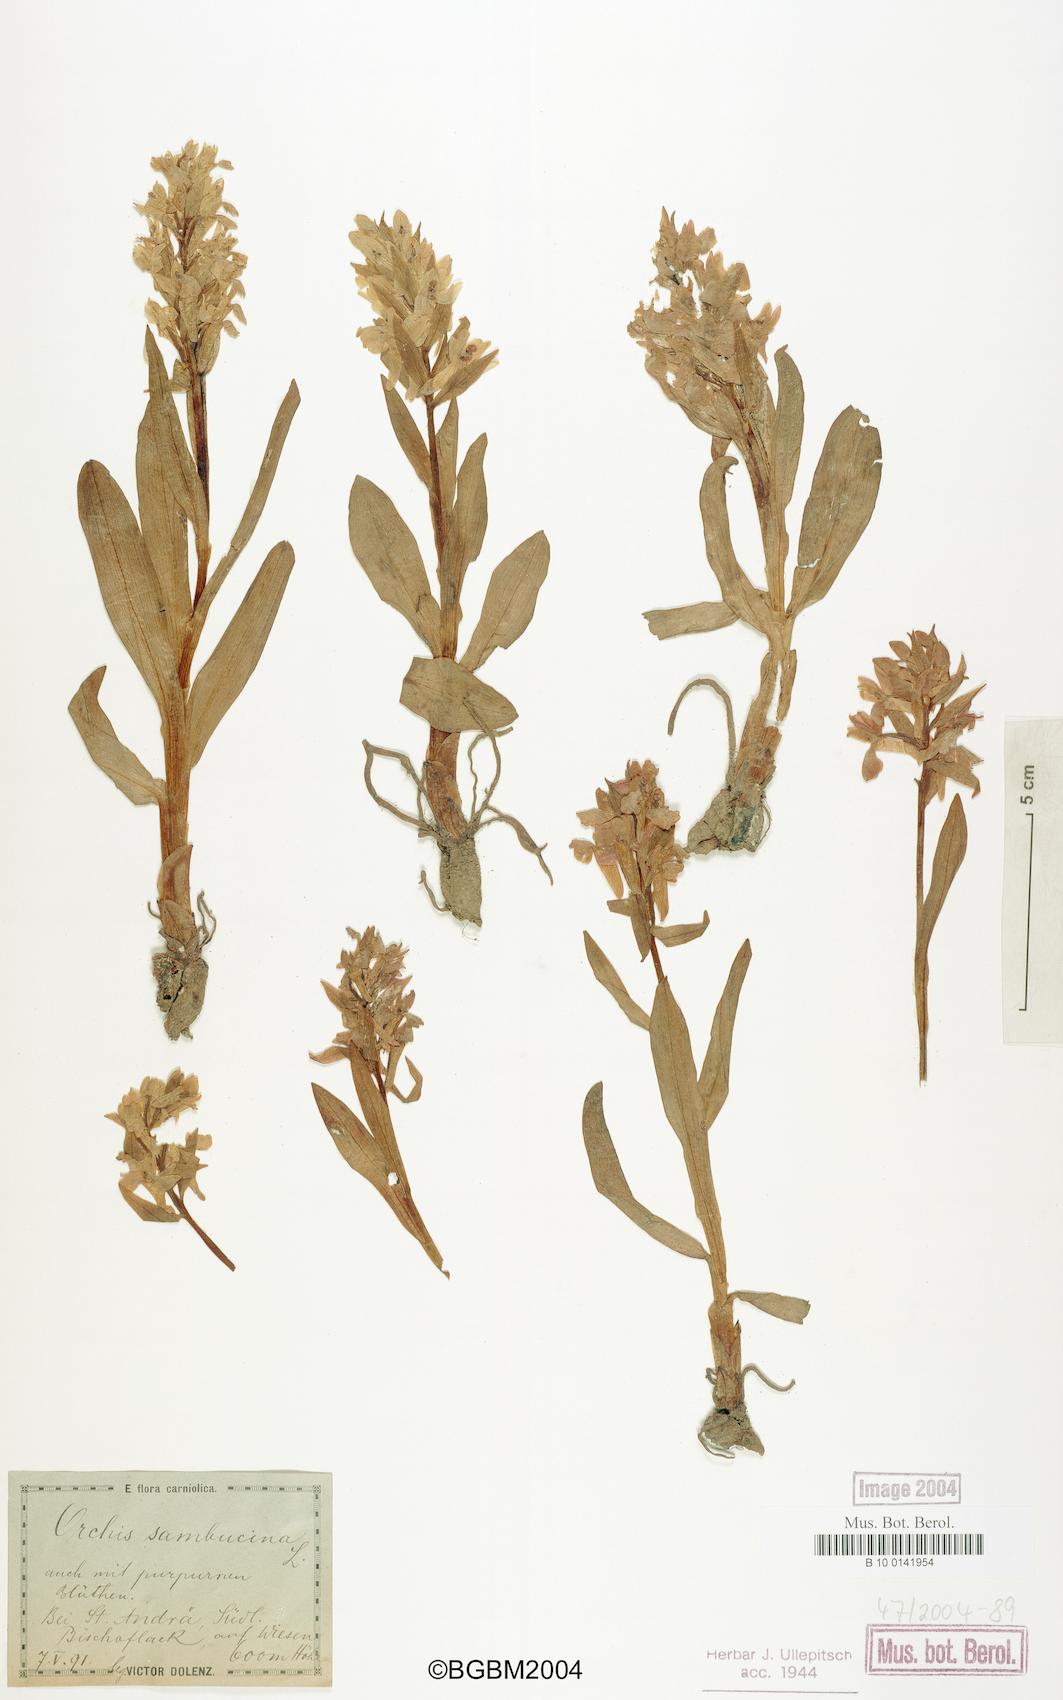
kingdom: Plantae
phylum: Tracheophyta
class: Liliopsida
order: Asparagales
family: Orchidaceae
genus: Dactylorhiza
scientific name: Dactylorhiza sambucina
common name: Elder-flowered orchid
